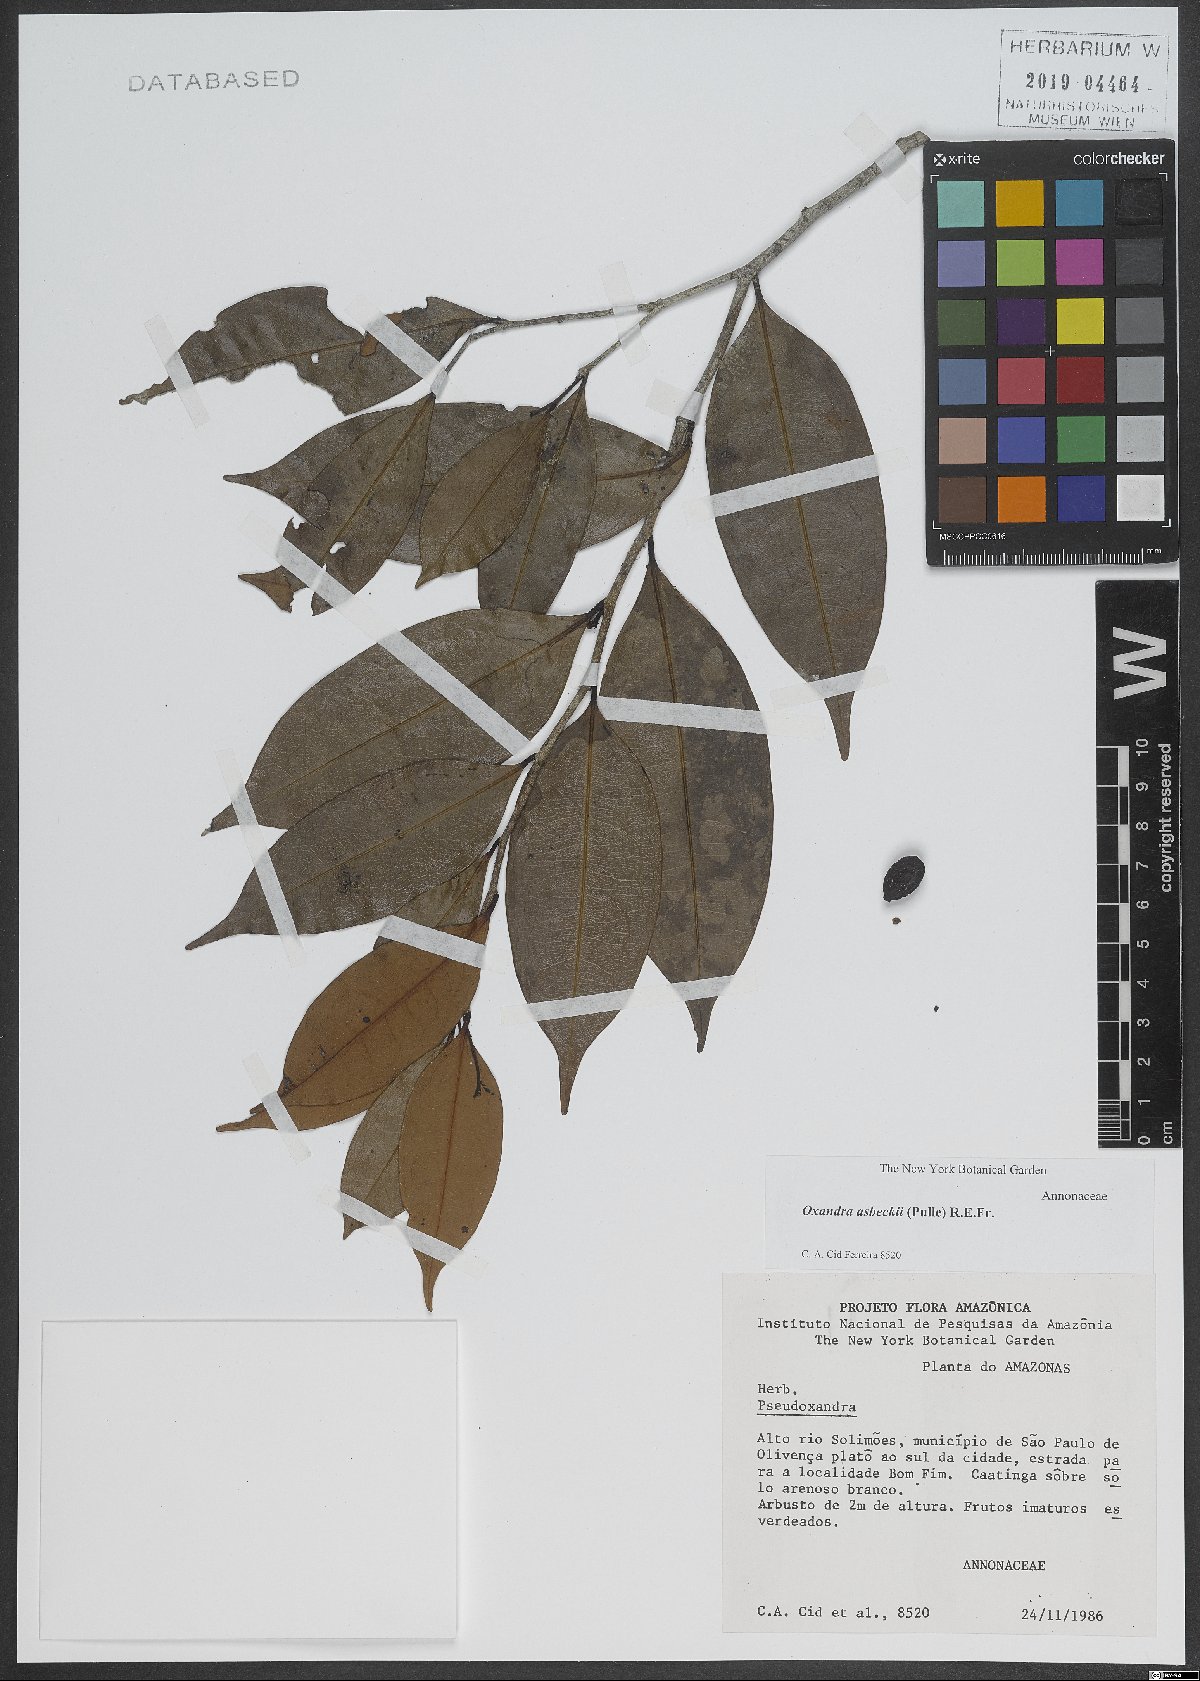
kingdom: Plantae
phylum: Tracheophyta
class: Magnoliopsida
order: Magnoliales
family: Annonaceae
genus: Oxandra
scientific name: Oxandra asbeckii
